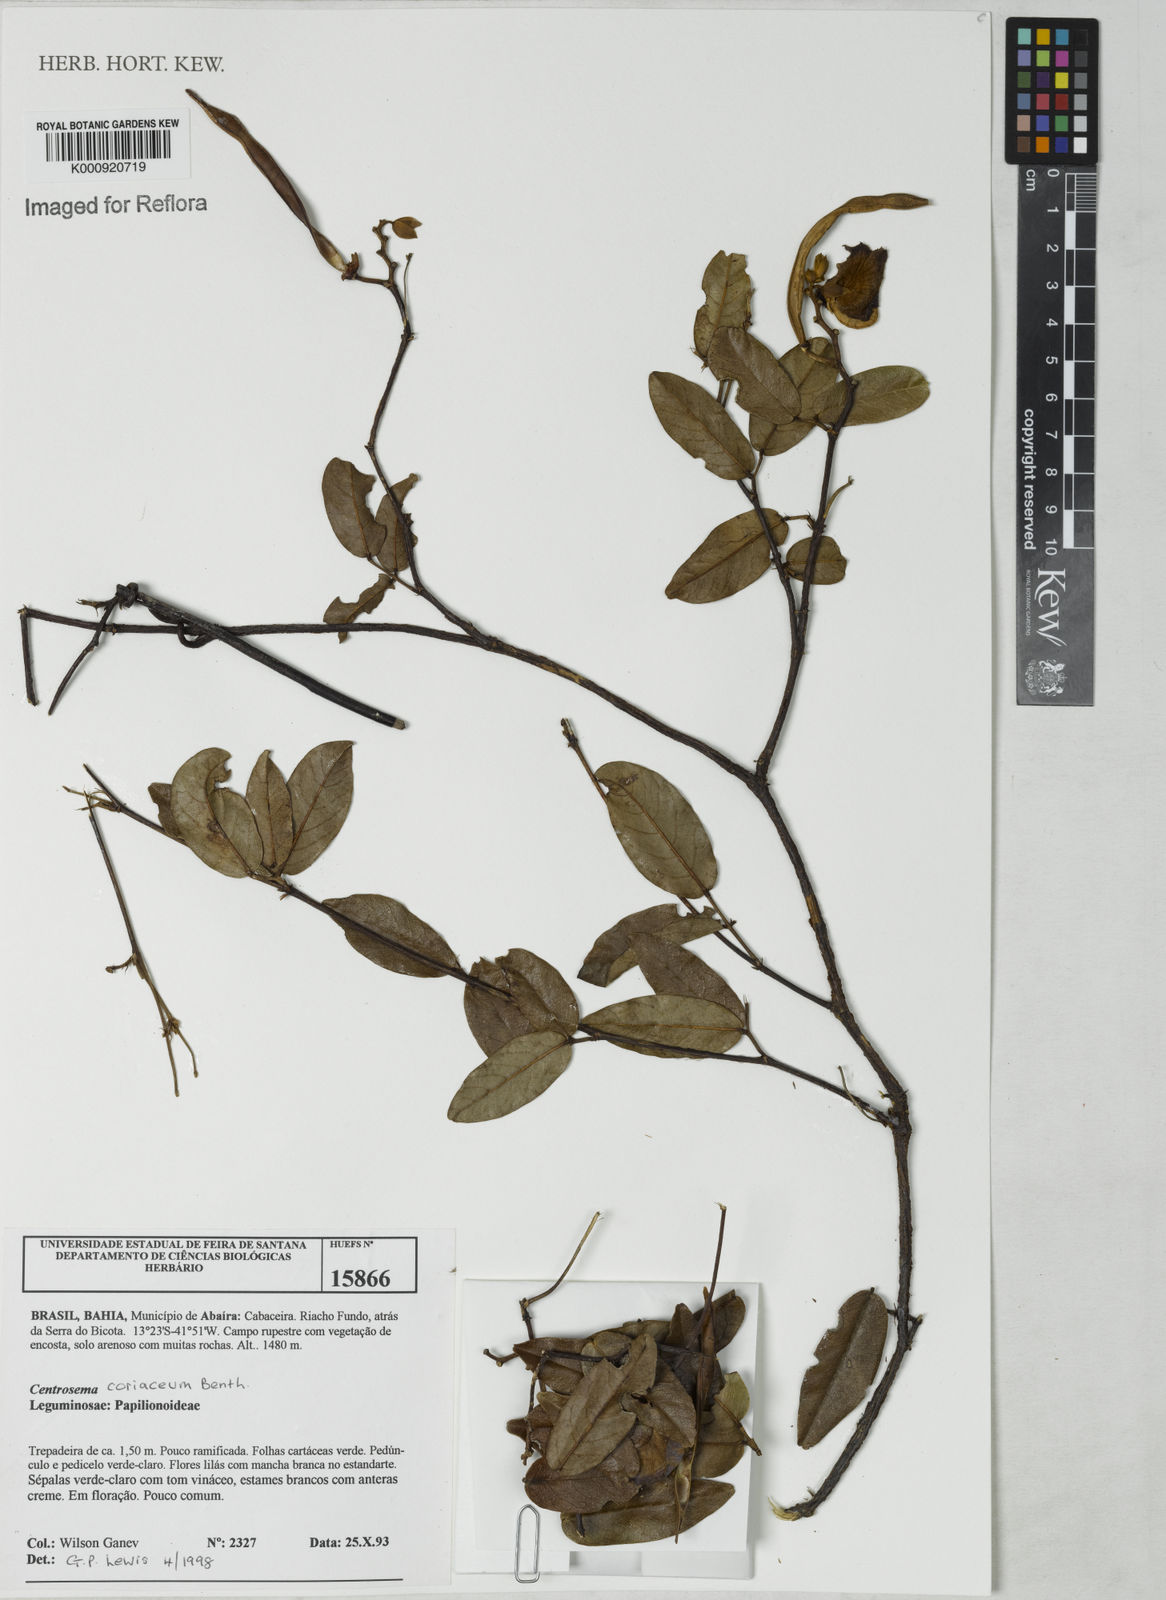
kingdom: Plantae
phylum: Tracheophyta
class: Magnoliopsida
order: Fabales
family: Fabaceae
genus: Centrosema
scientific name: Centrosema coriaceum
